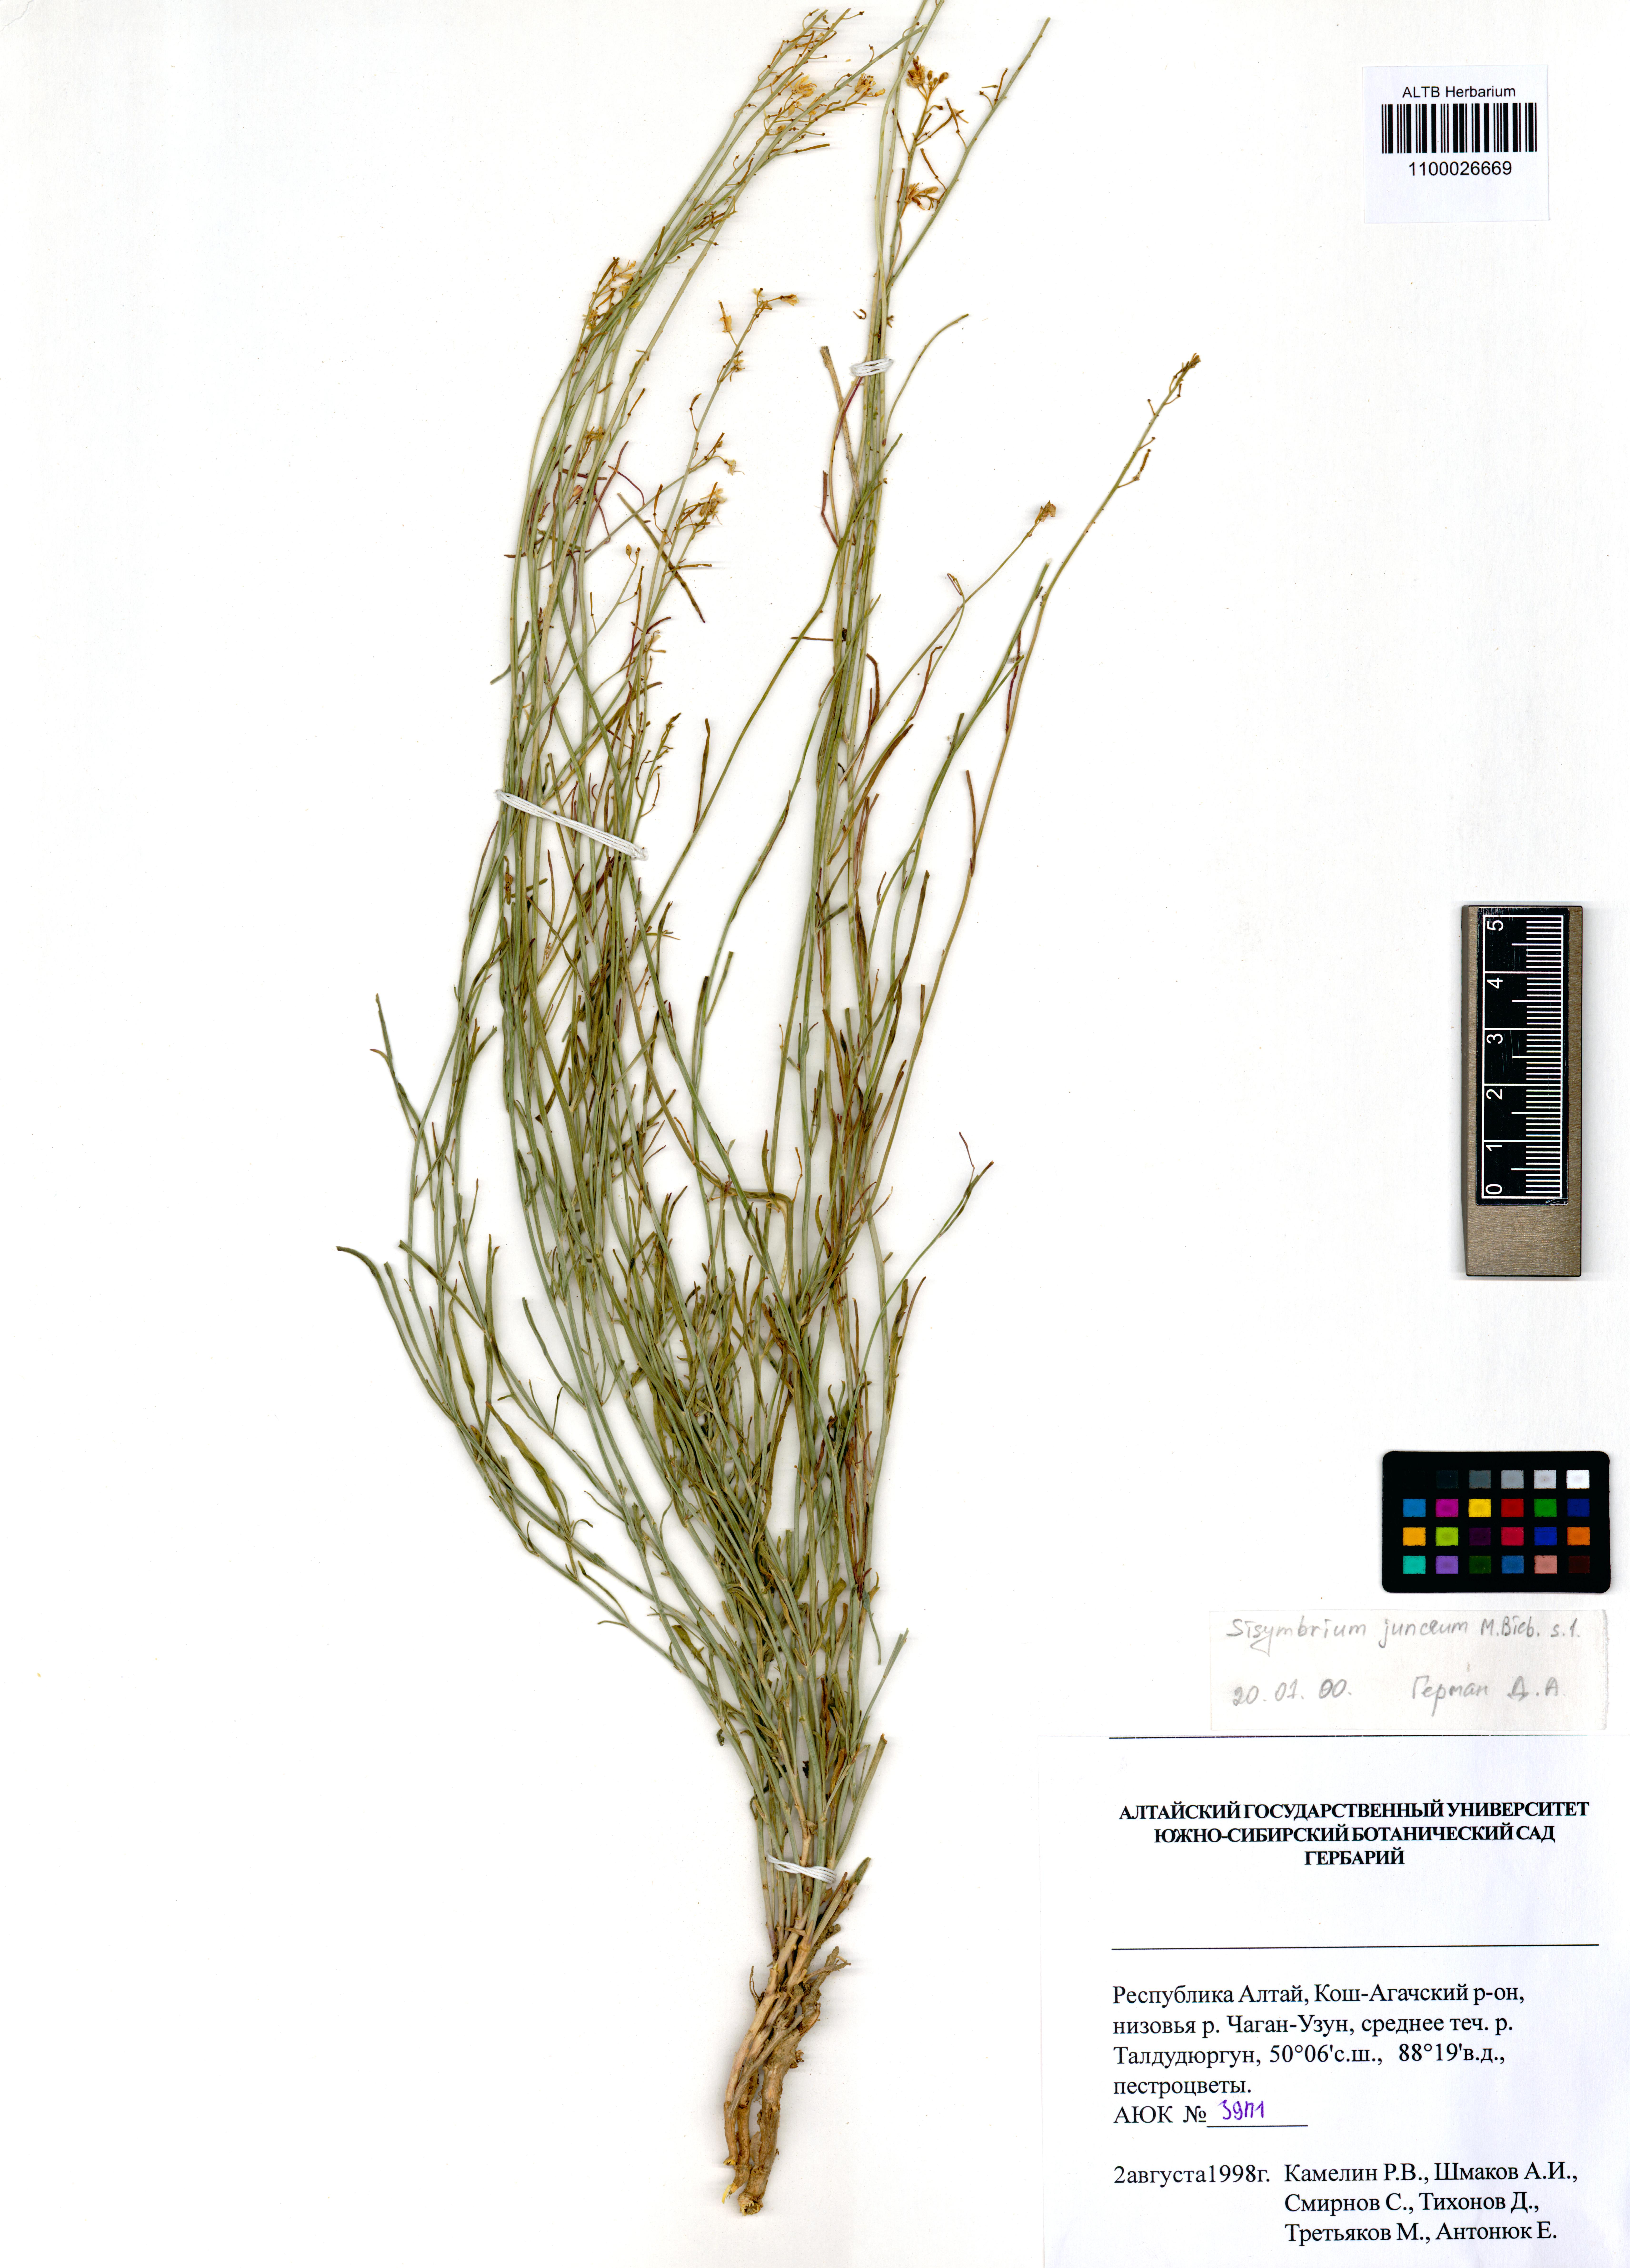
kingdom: Plantae
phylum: Tracheophyta
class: Magnoliopsida
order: Brassicales
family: Brassicaceae
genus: Sisymbrium
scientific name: Sisymbrium polymorphum
